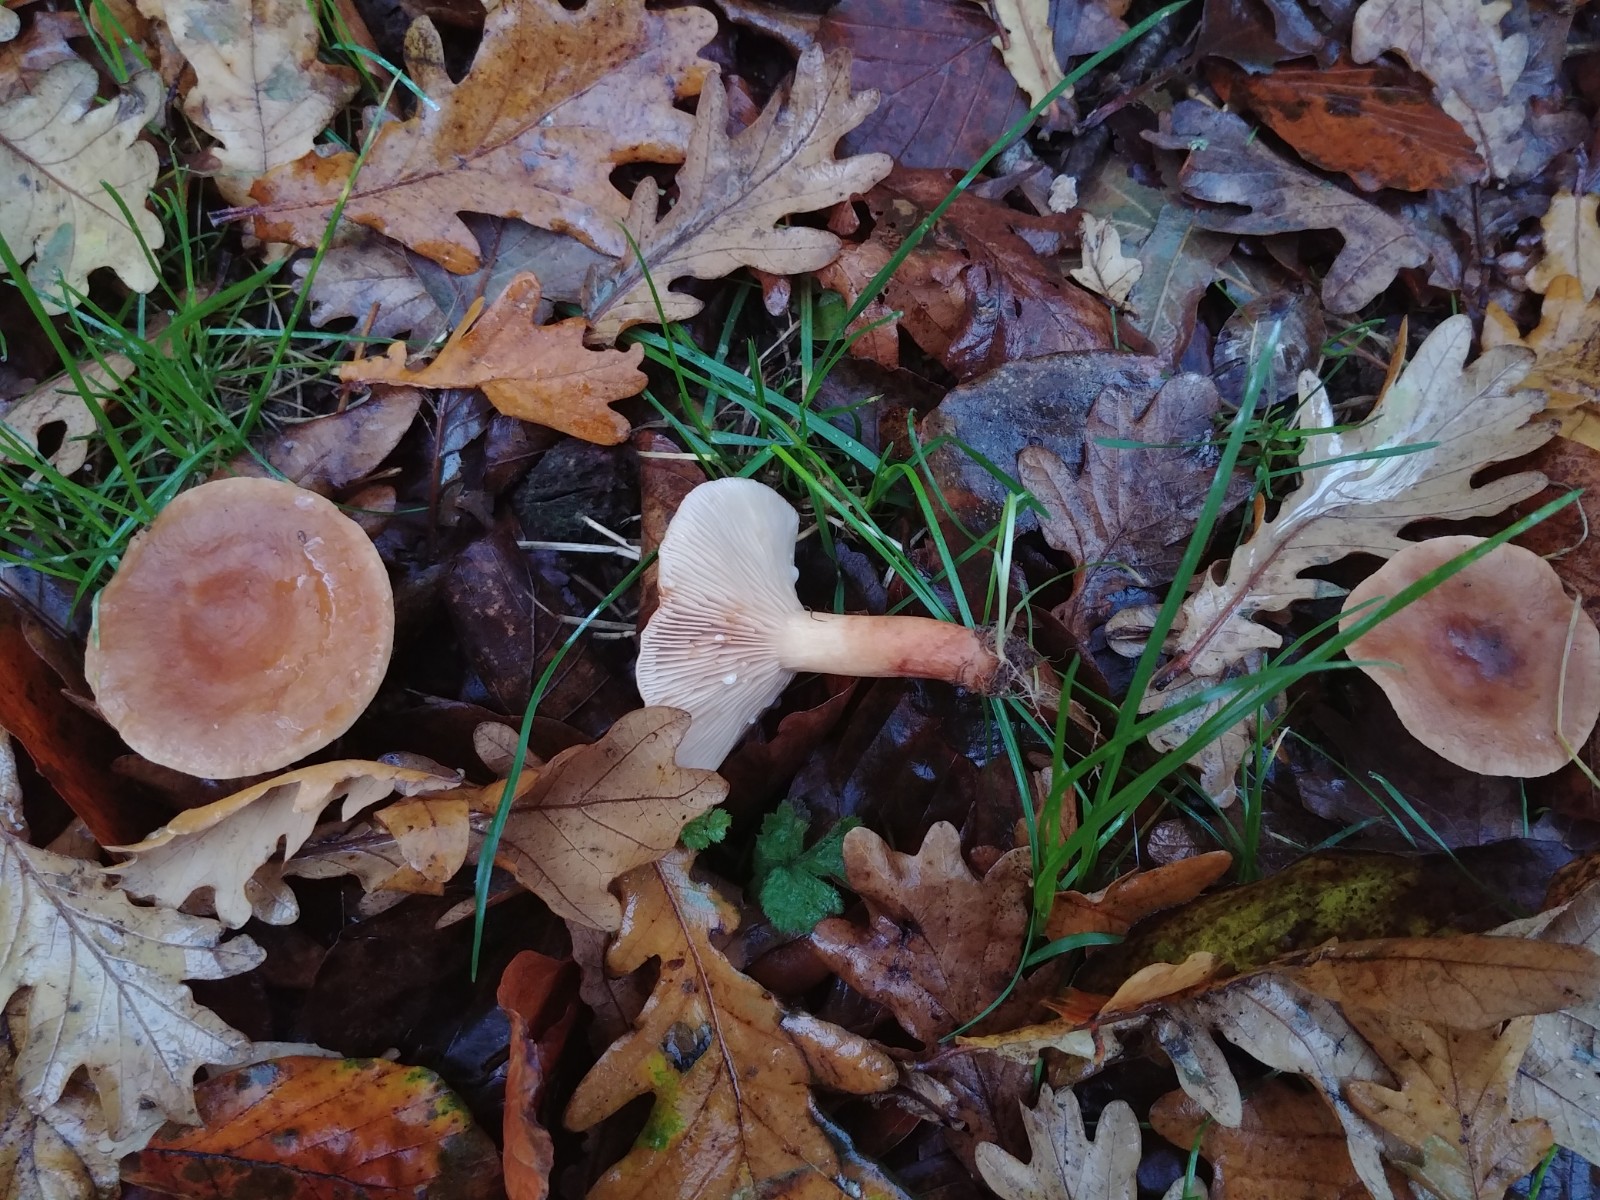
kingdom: Fungi
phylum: Basidiomycota
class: Agaricomycetes
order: Russulales
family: Russulaceae
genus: Lactarius
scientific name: Lactarius subdulcis
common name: sødlig mælkehat
